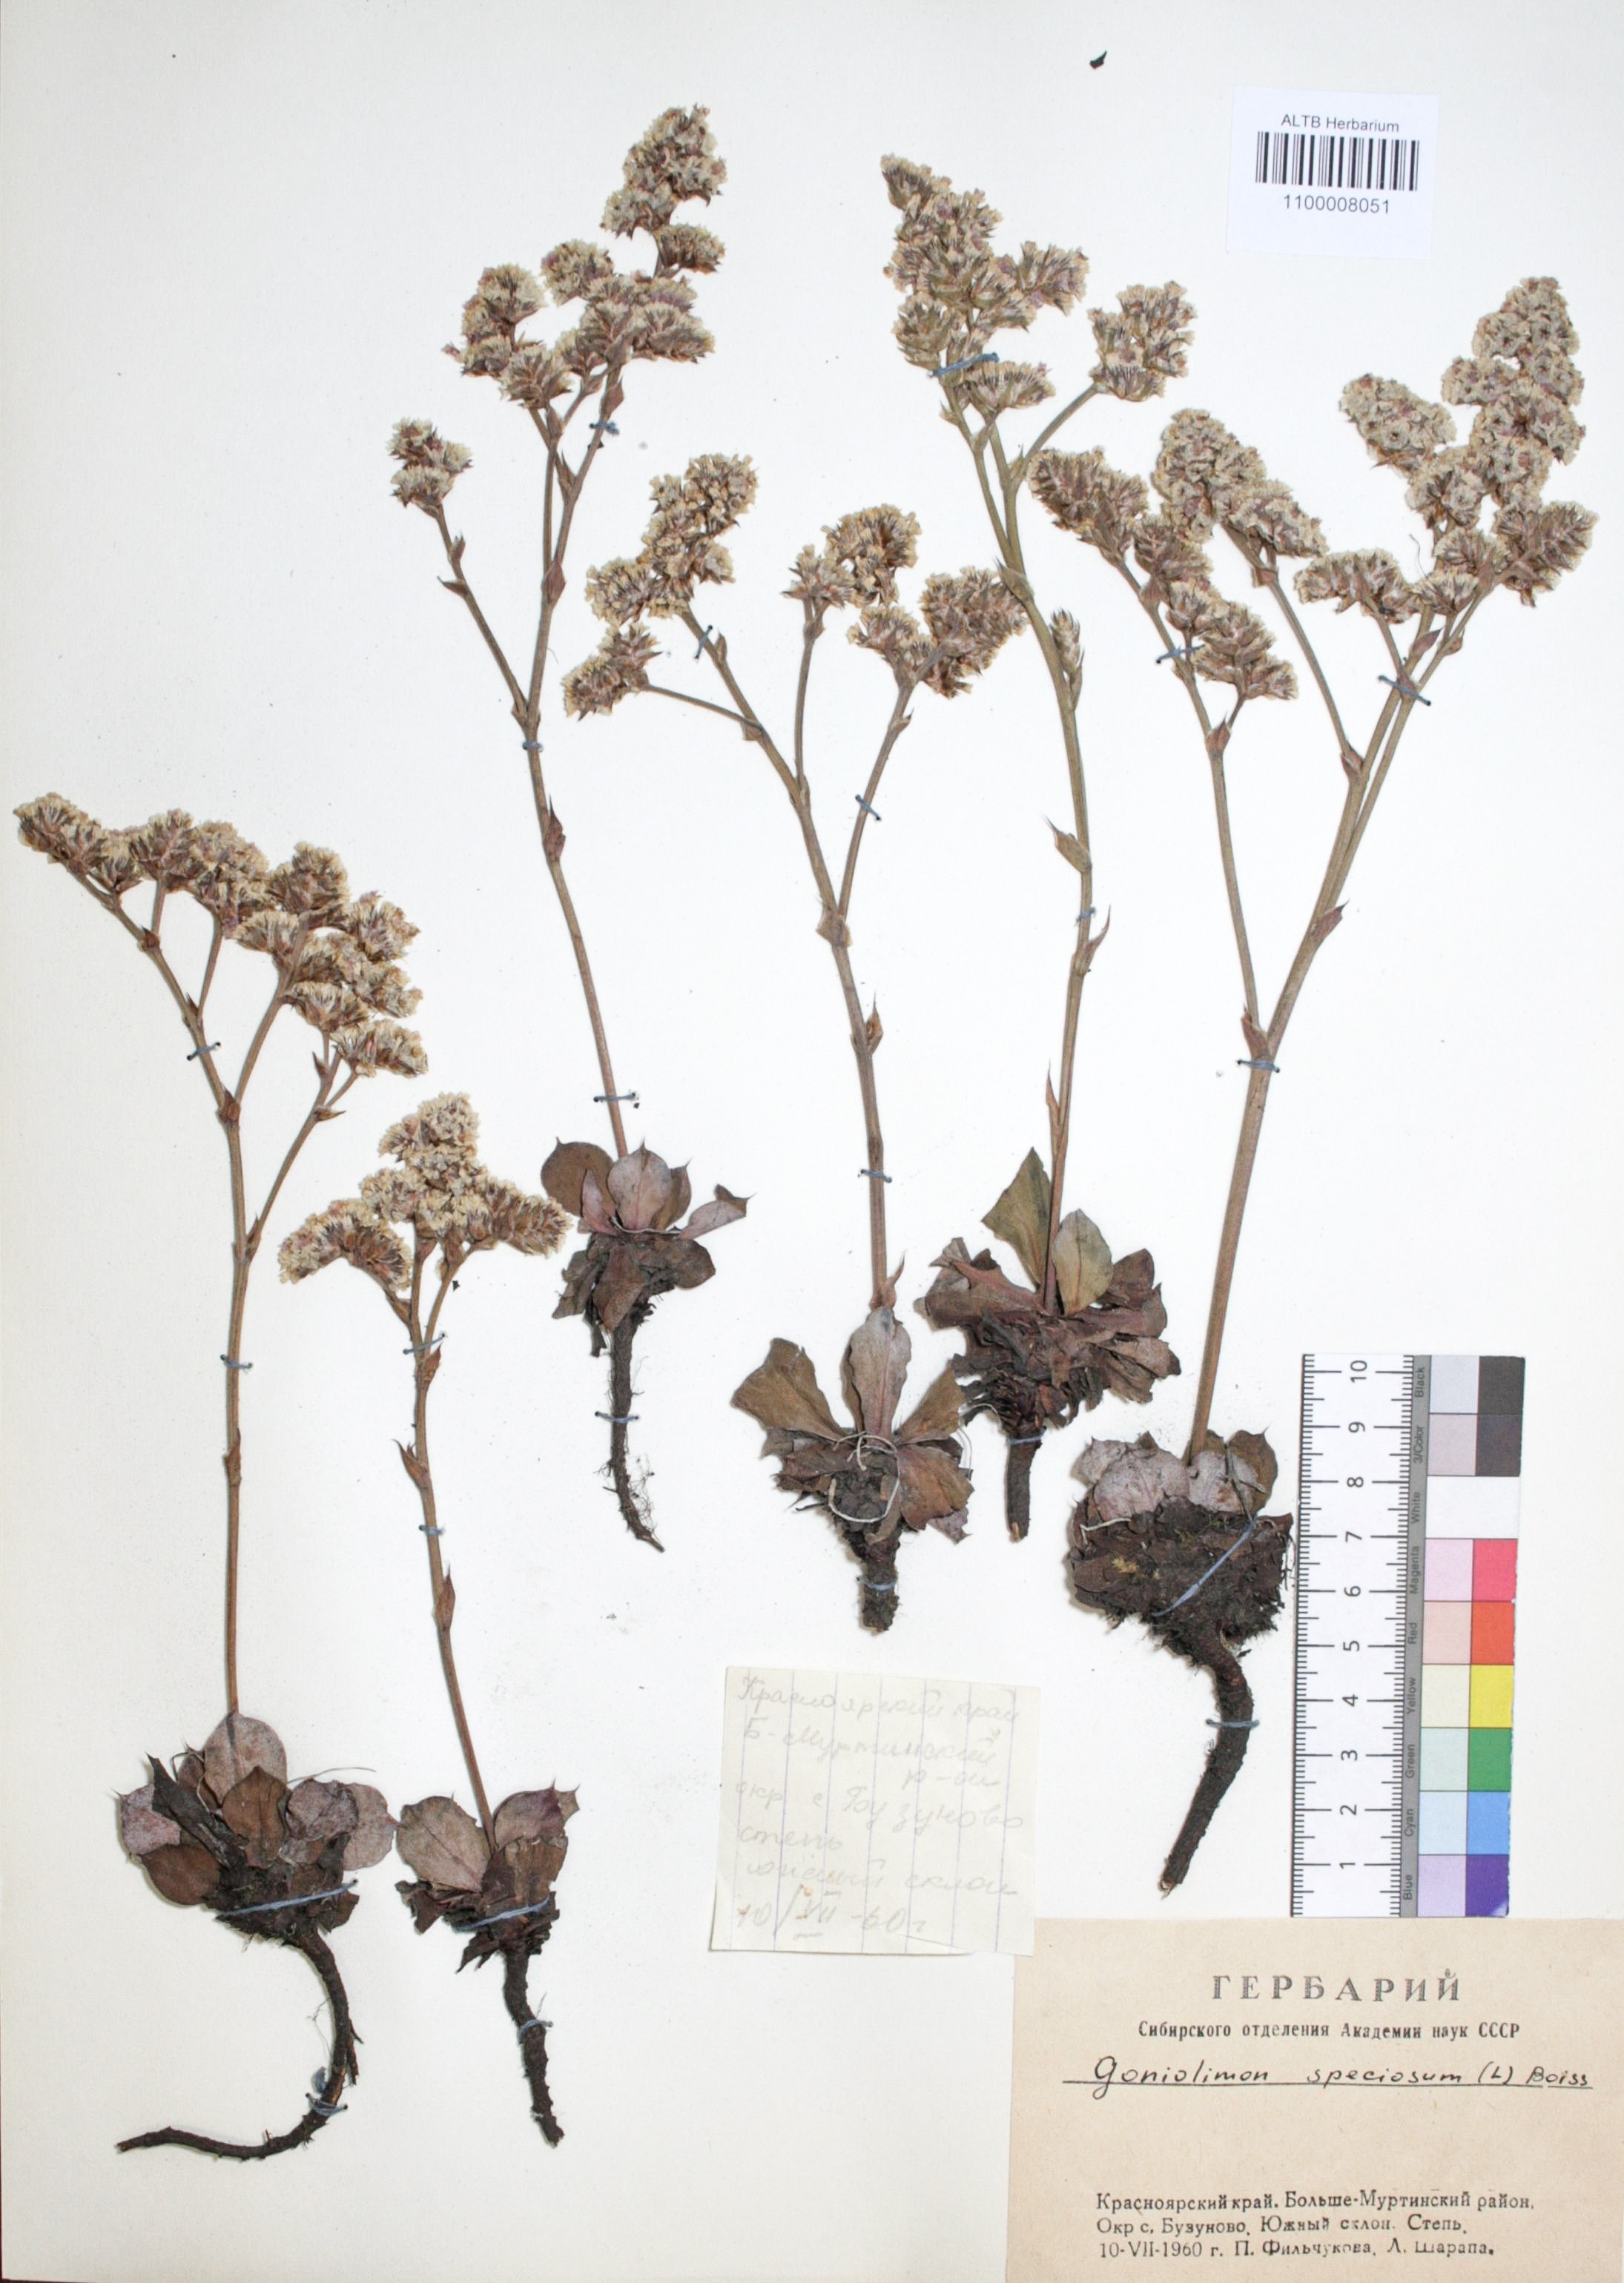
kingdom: Plantae
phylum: Tracheophyta
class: Magnoliopsida
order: Caryophyllales
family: Plumbaginaceae
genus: Goniolimon
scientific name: Goniolimon speciosum
